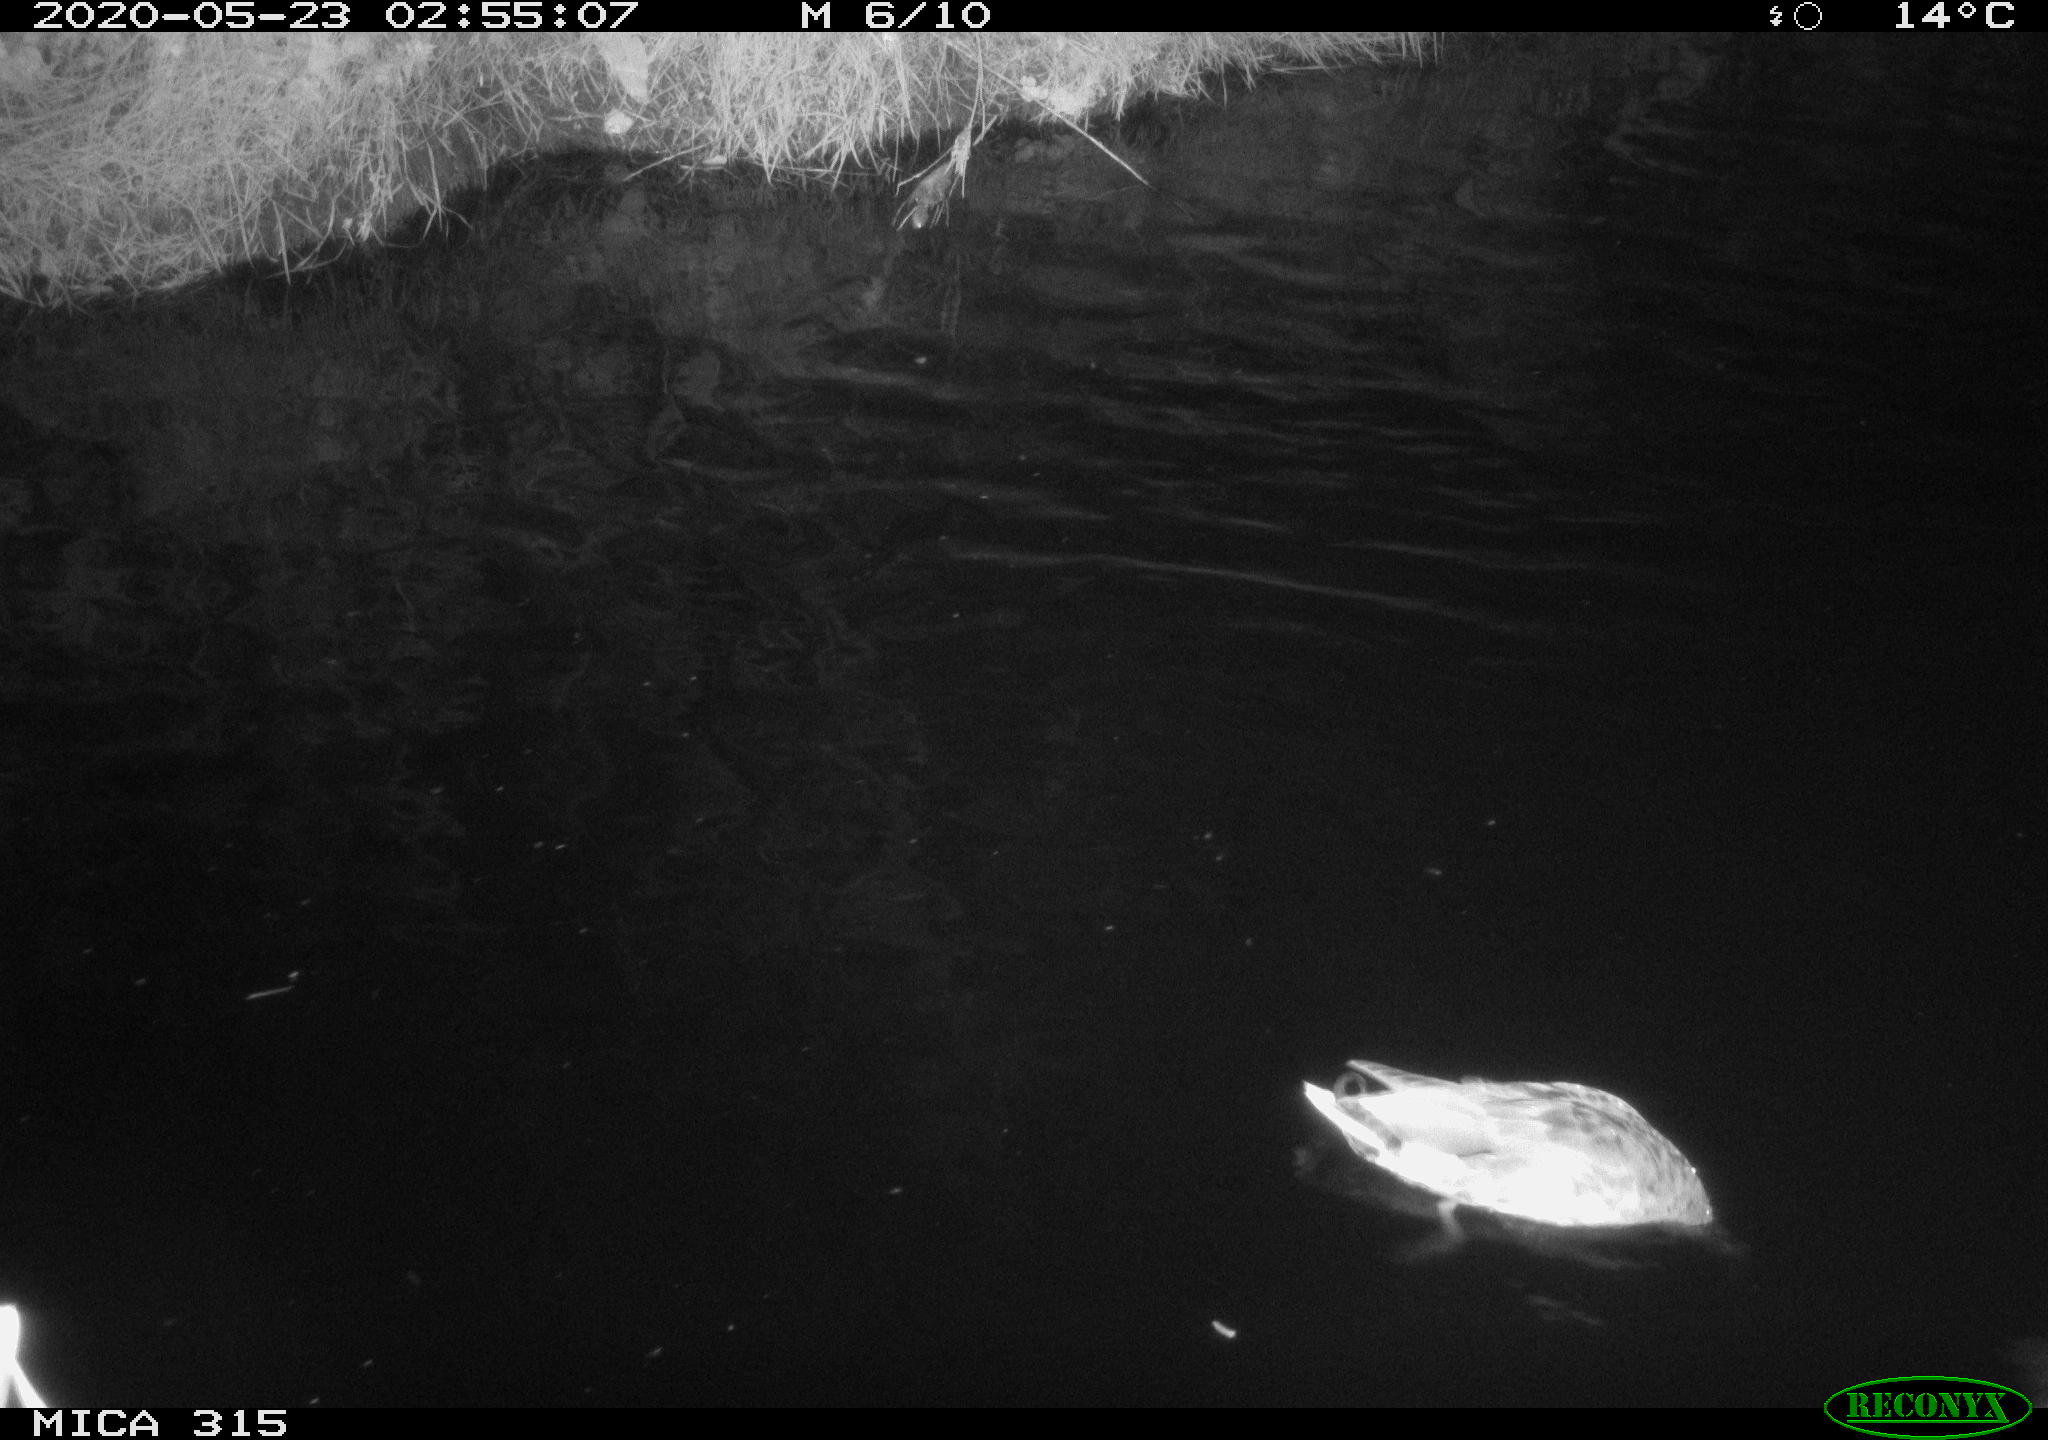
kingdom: Animalia
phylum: Chordata
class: Aves
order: Anseriformes
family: Anatidae
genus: Anas
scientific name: Anas platyrhynchos
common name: Mallard
